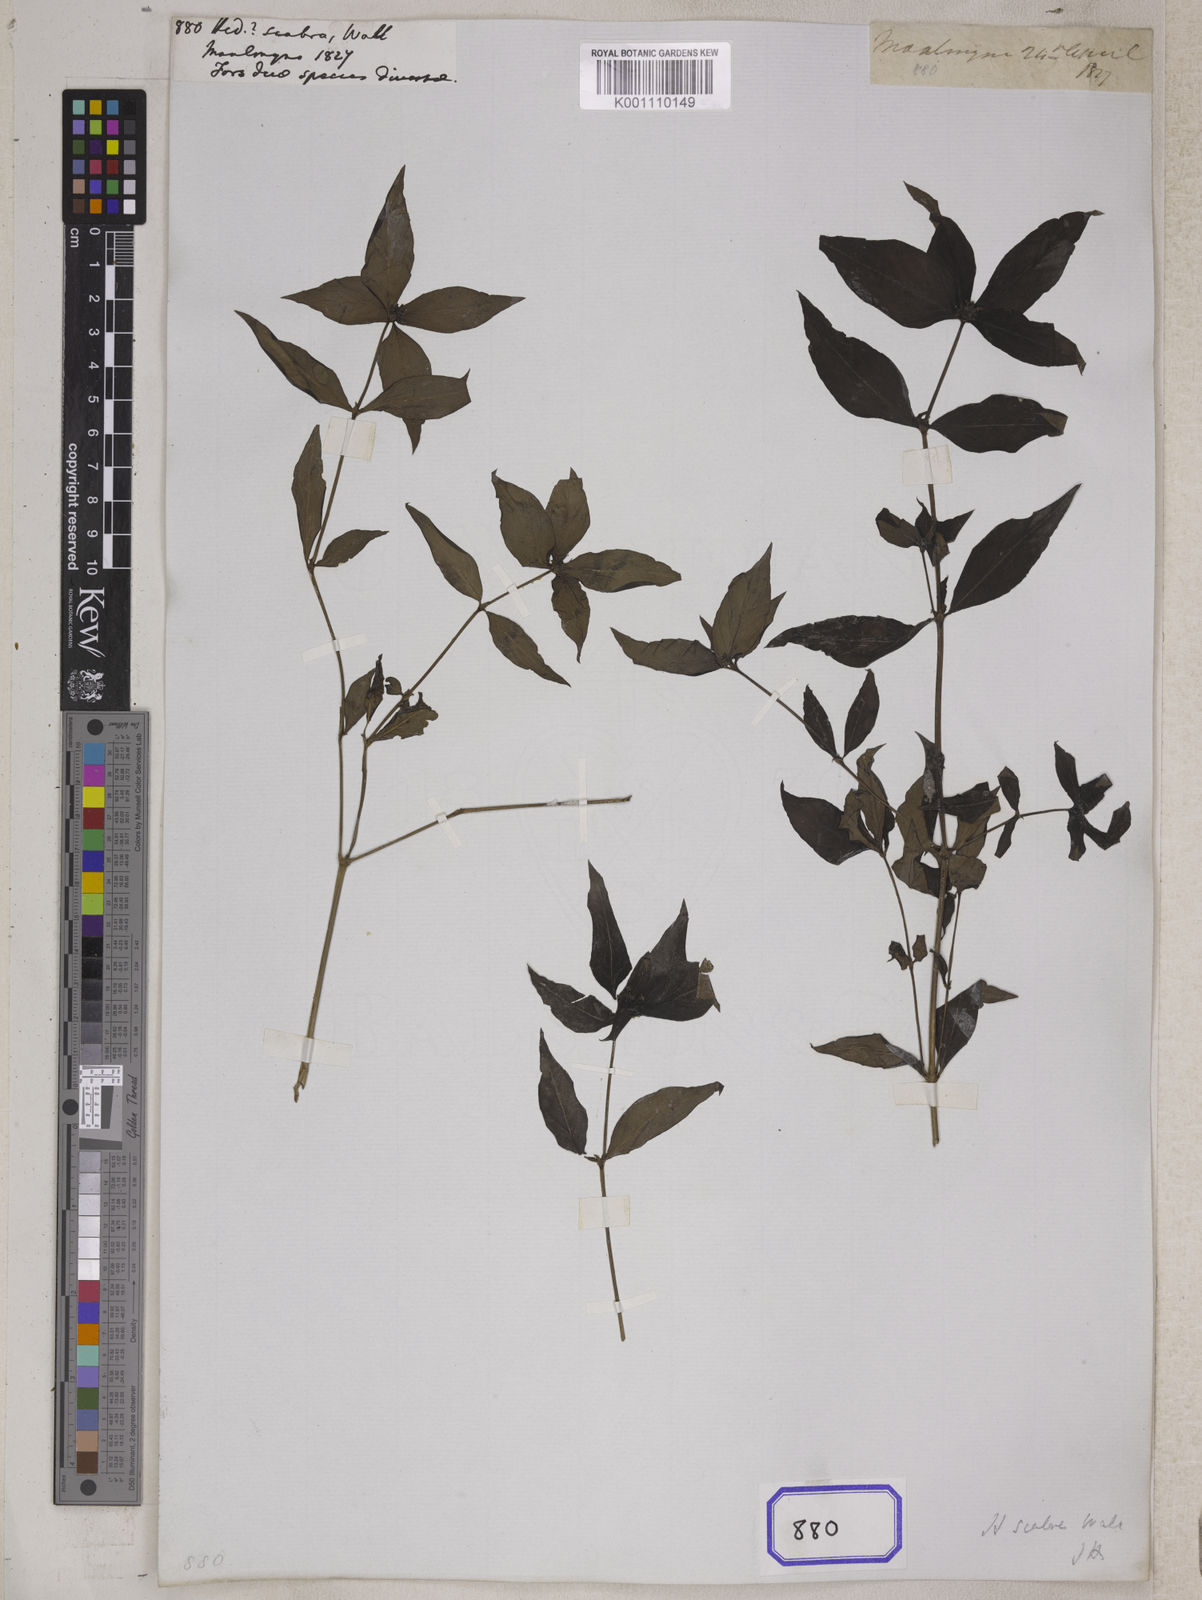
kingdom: Plantae
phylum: Tracheophyta
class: Magnoliopsida
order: Gentianales
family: Rubiaceae
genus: Hedyotis
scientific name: Hedyotis
